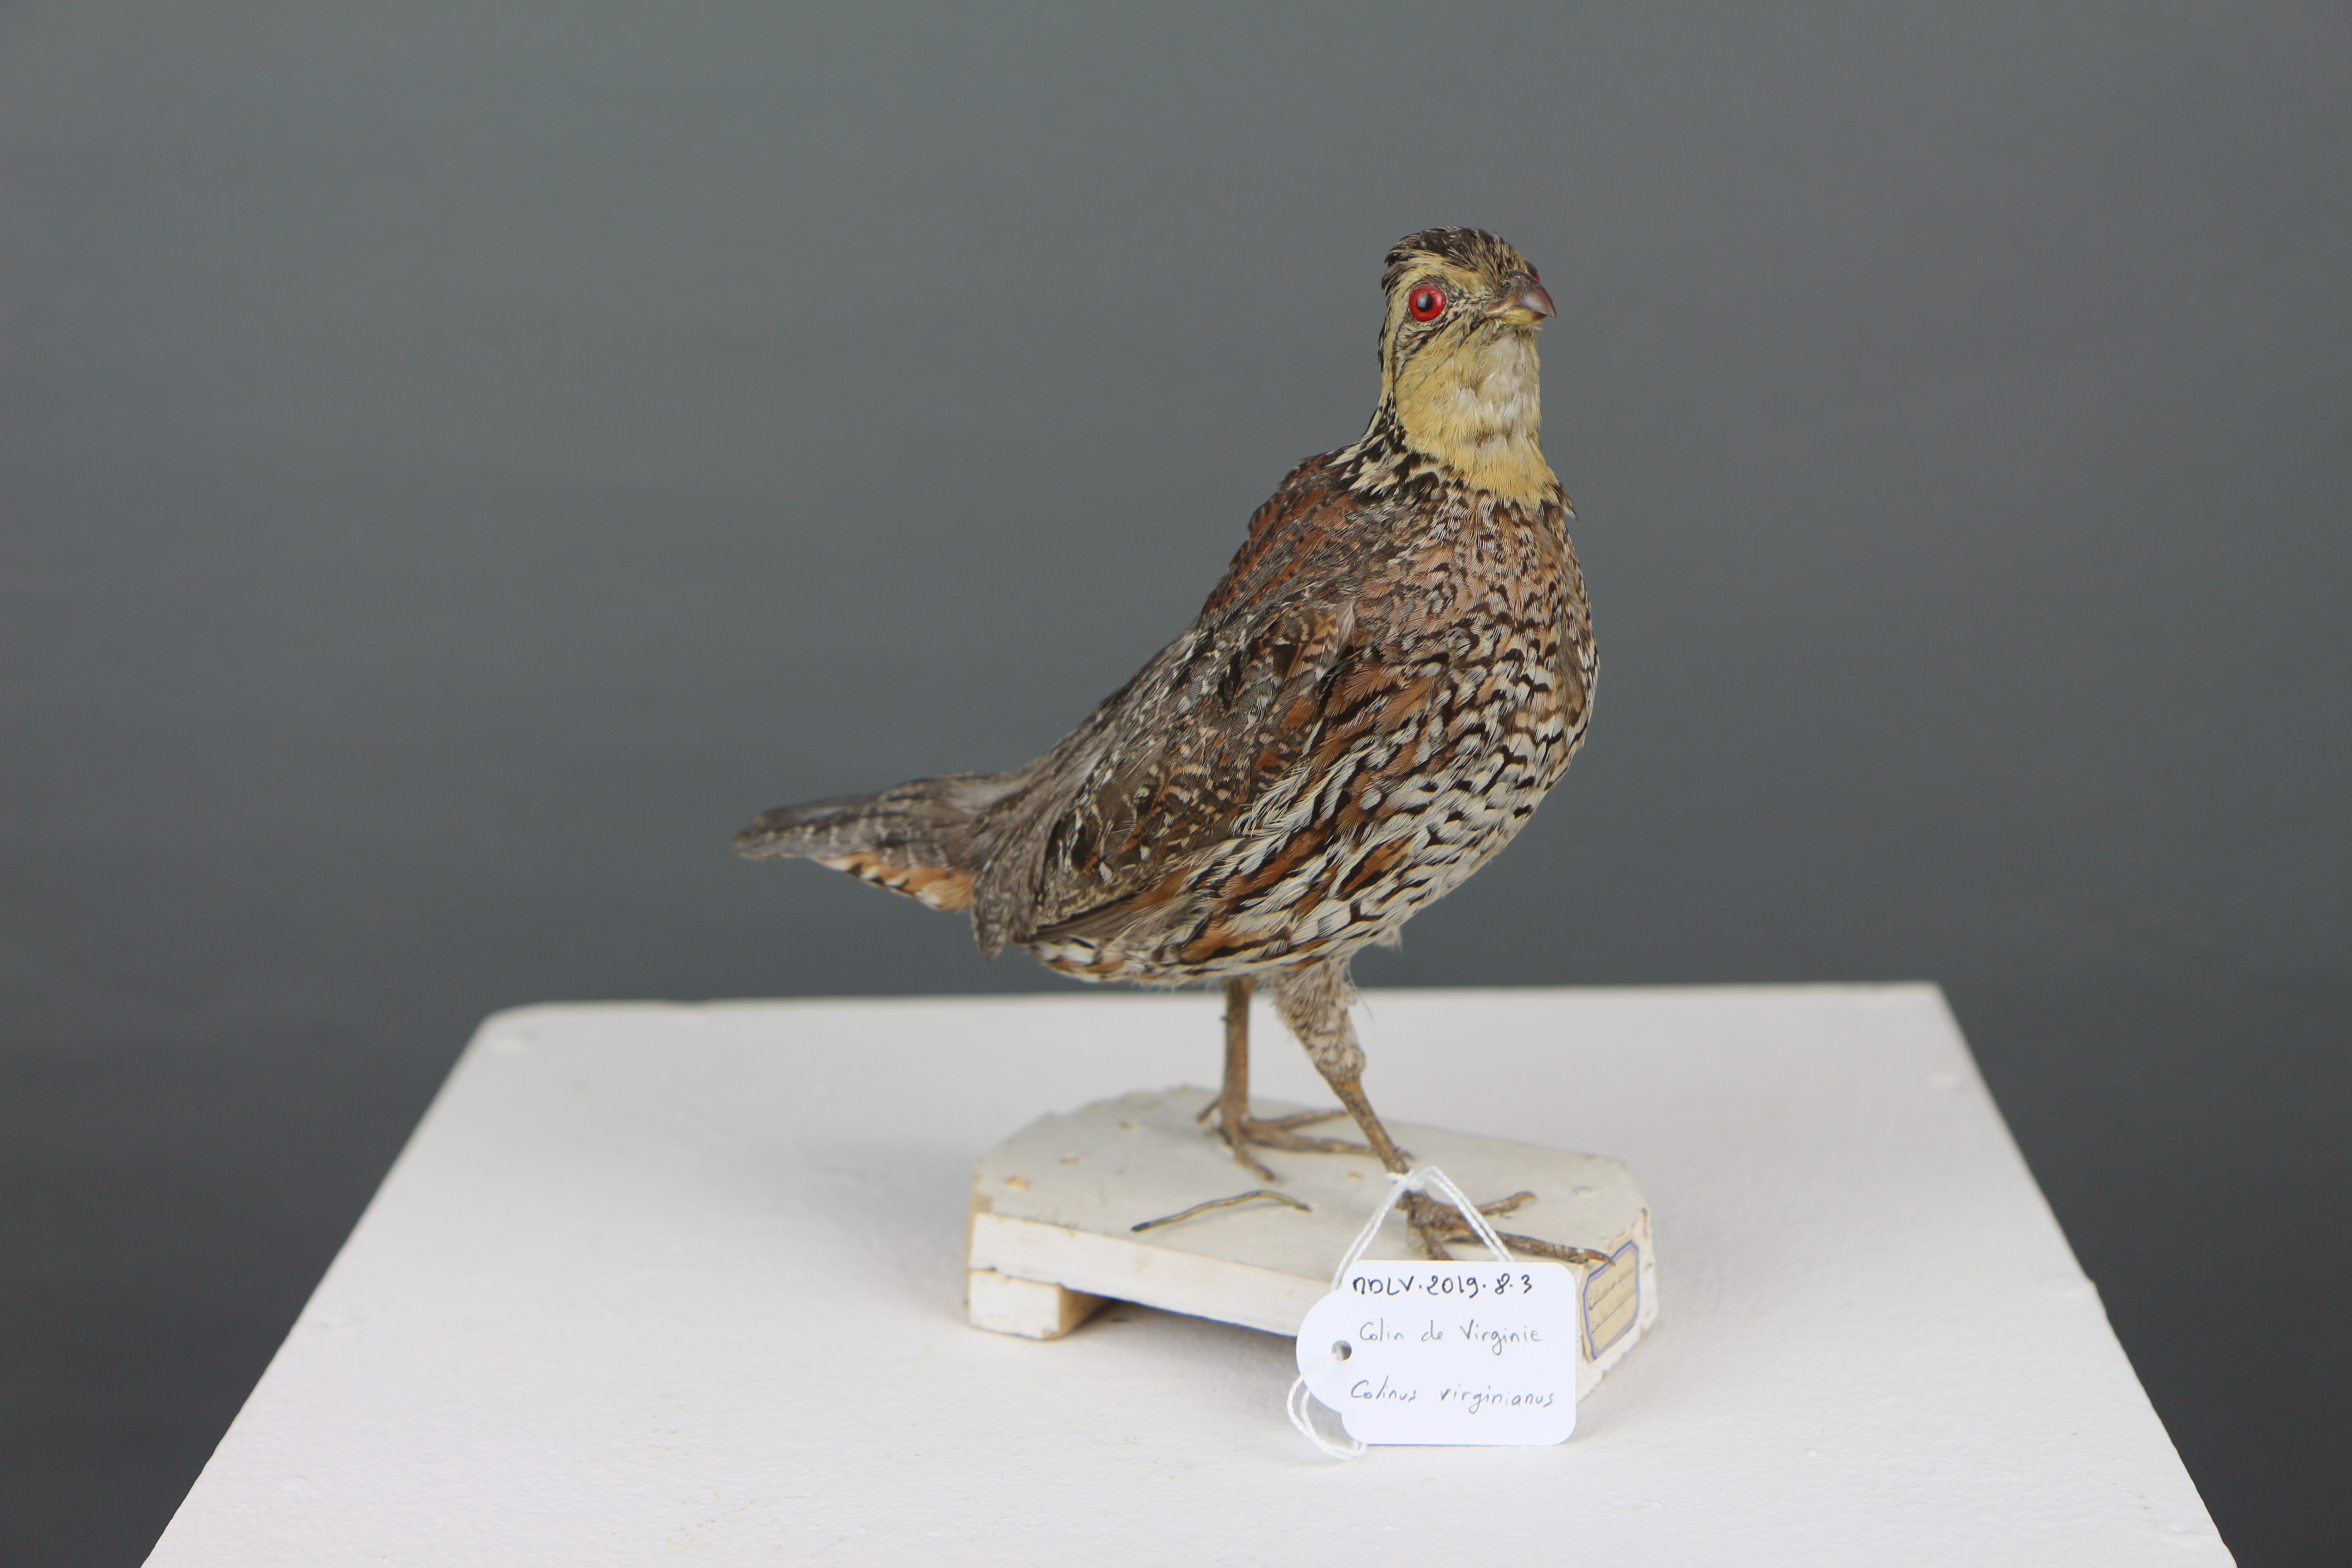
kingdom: Animalia
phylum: Chordata
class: Aves
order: Galliformes
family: Odontophoridae
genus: Colinus
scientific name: Colinus virginianus
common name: Northern bobwhite
